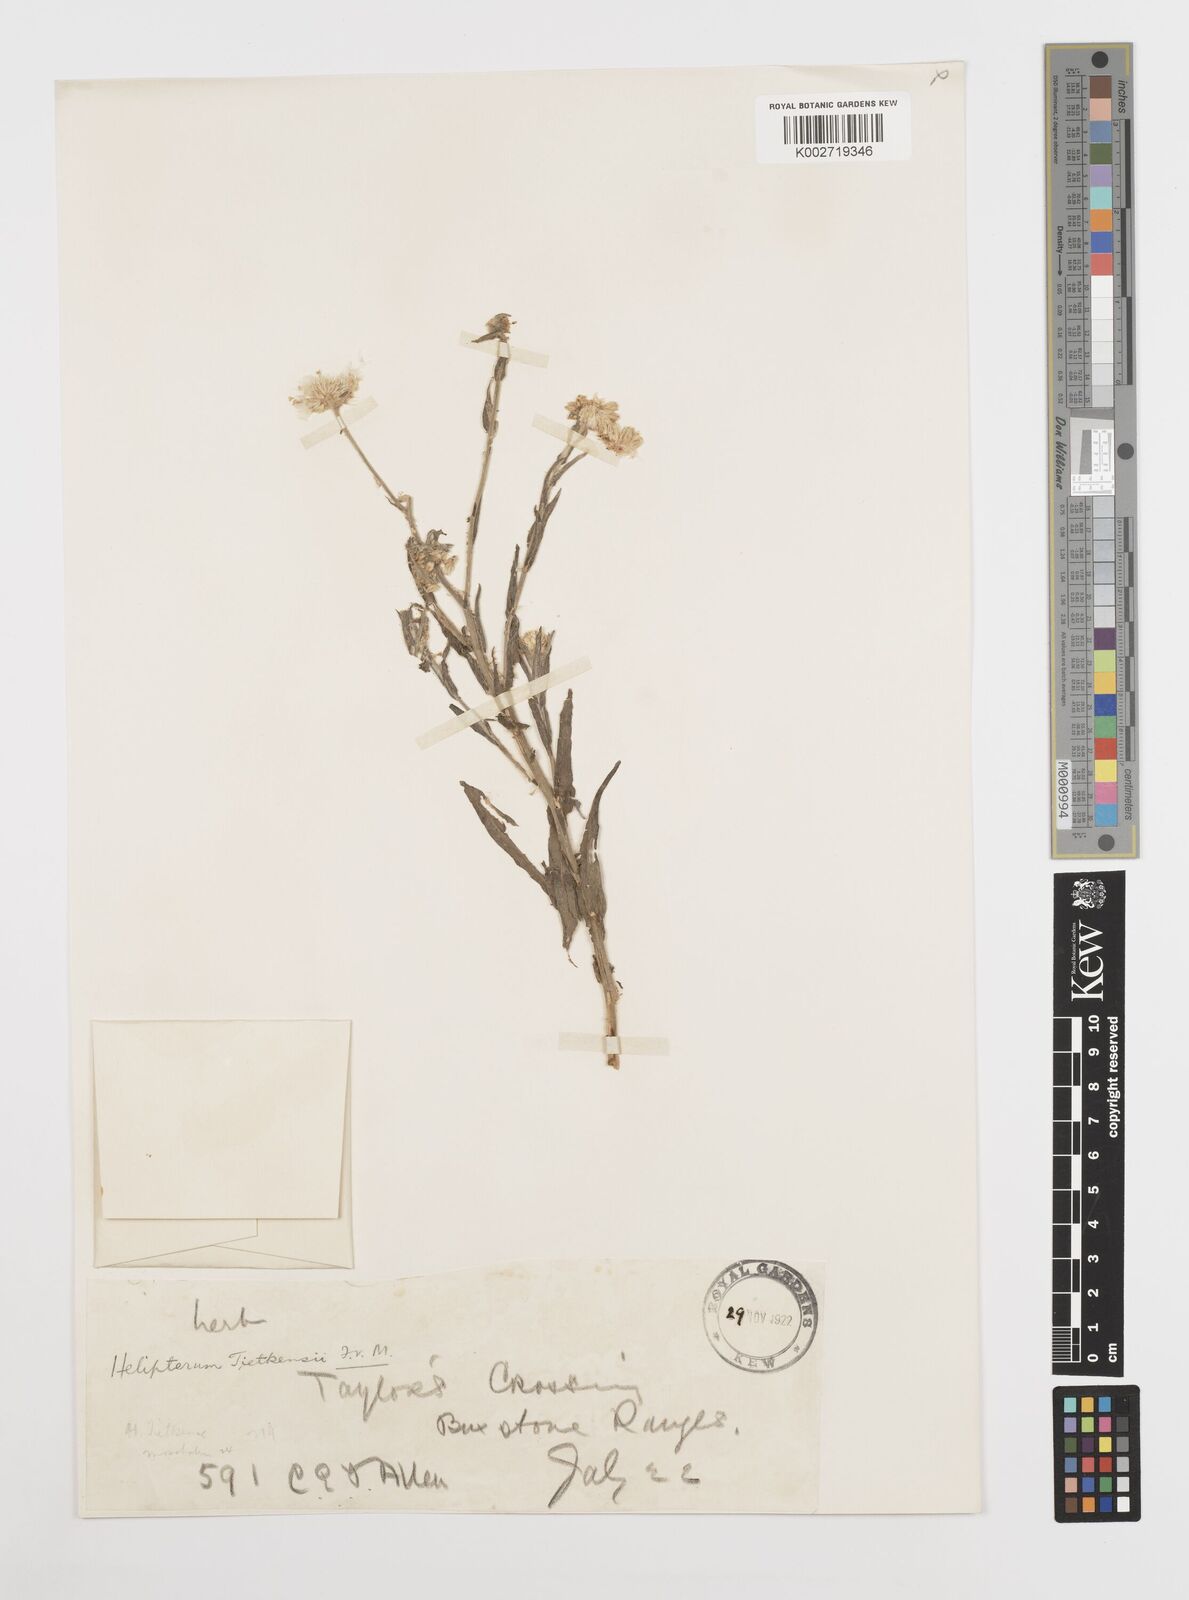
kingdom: Plantae
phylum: Tracheophyta
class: Magnoliopsida
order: Asterales
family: Asteraceae
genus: Rhodanthe
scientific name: Rhodanthe tietkensii
